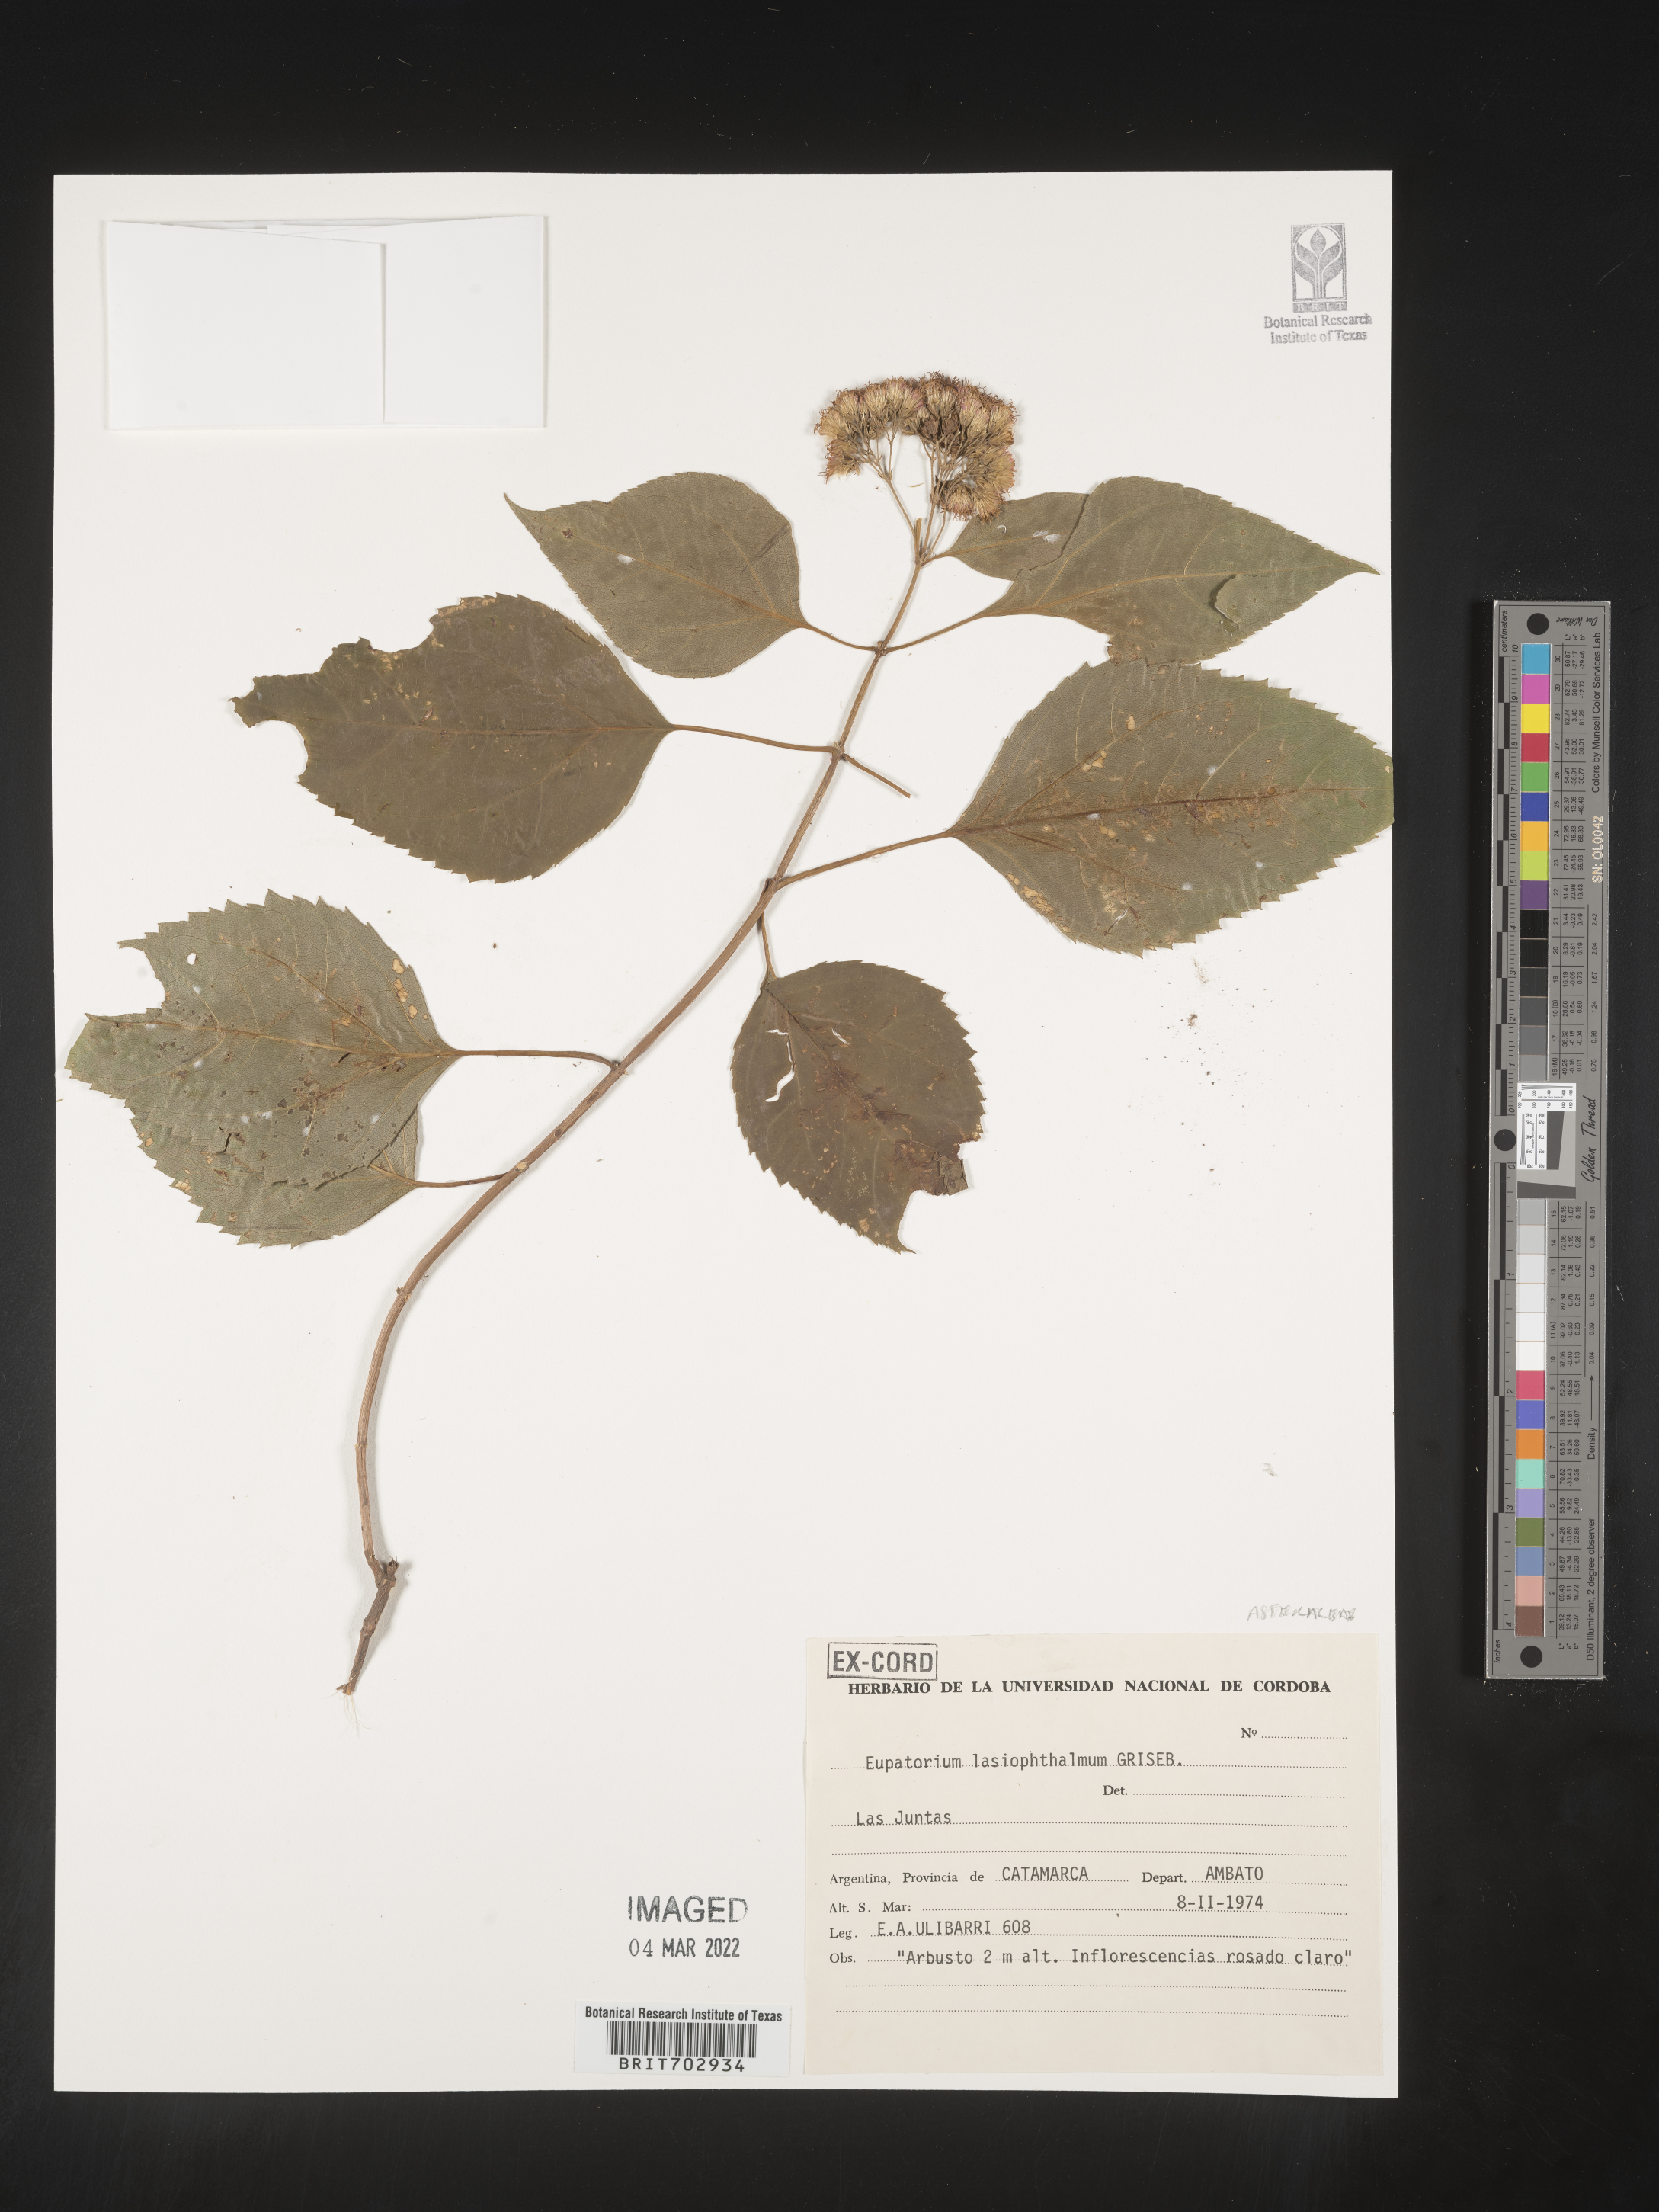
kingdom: Plantae
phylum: Tracheophyta
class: Magnoliopsida
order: Asterales
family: Asteraceae
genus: Eupatorium
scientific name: Eupatorium
